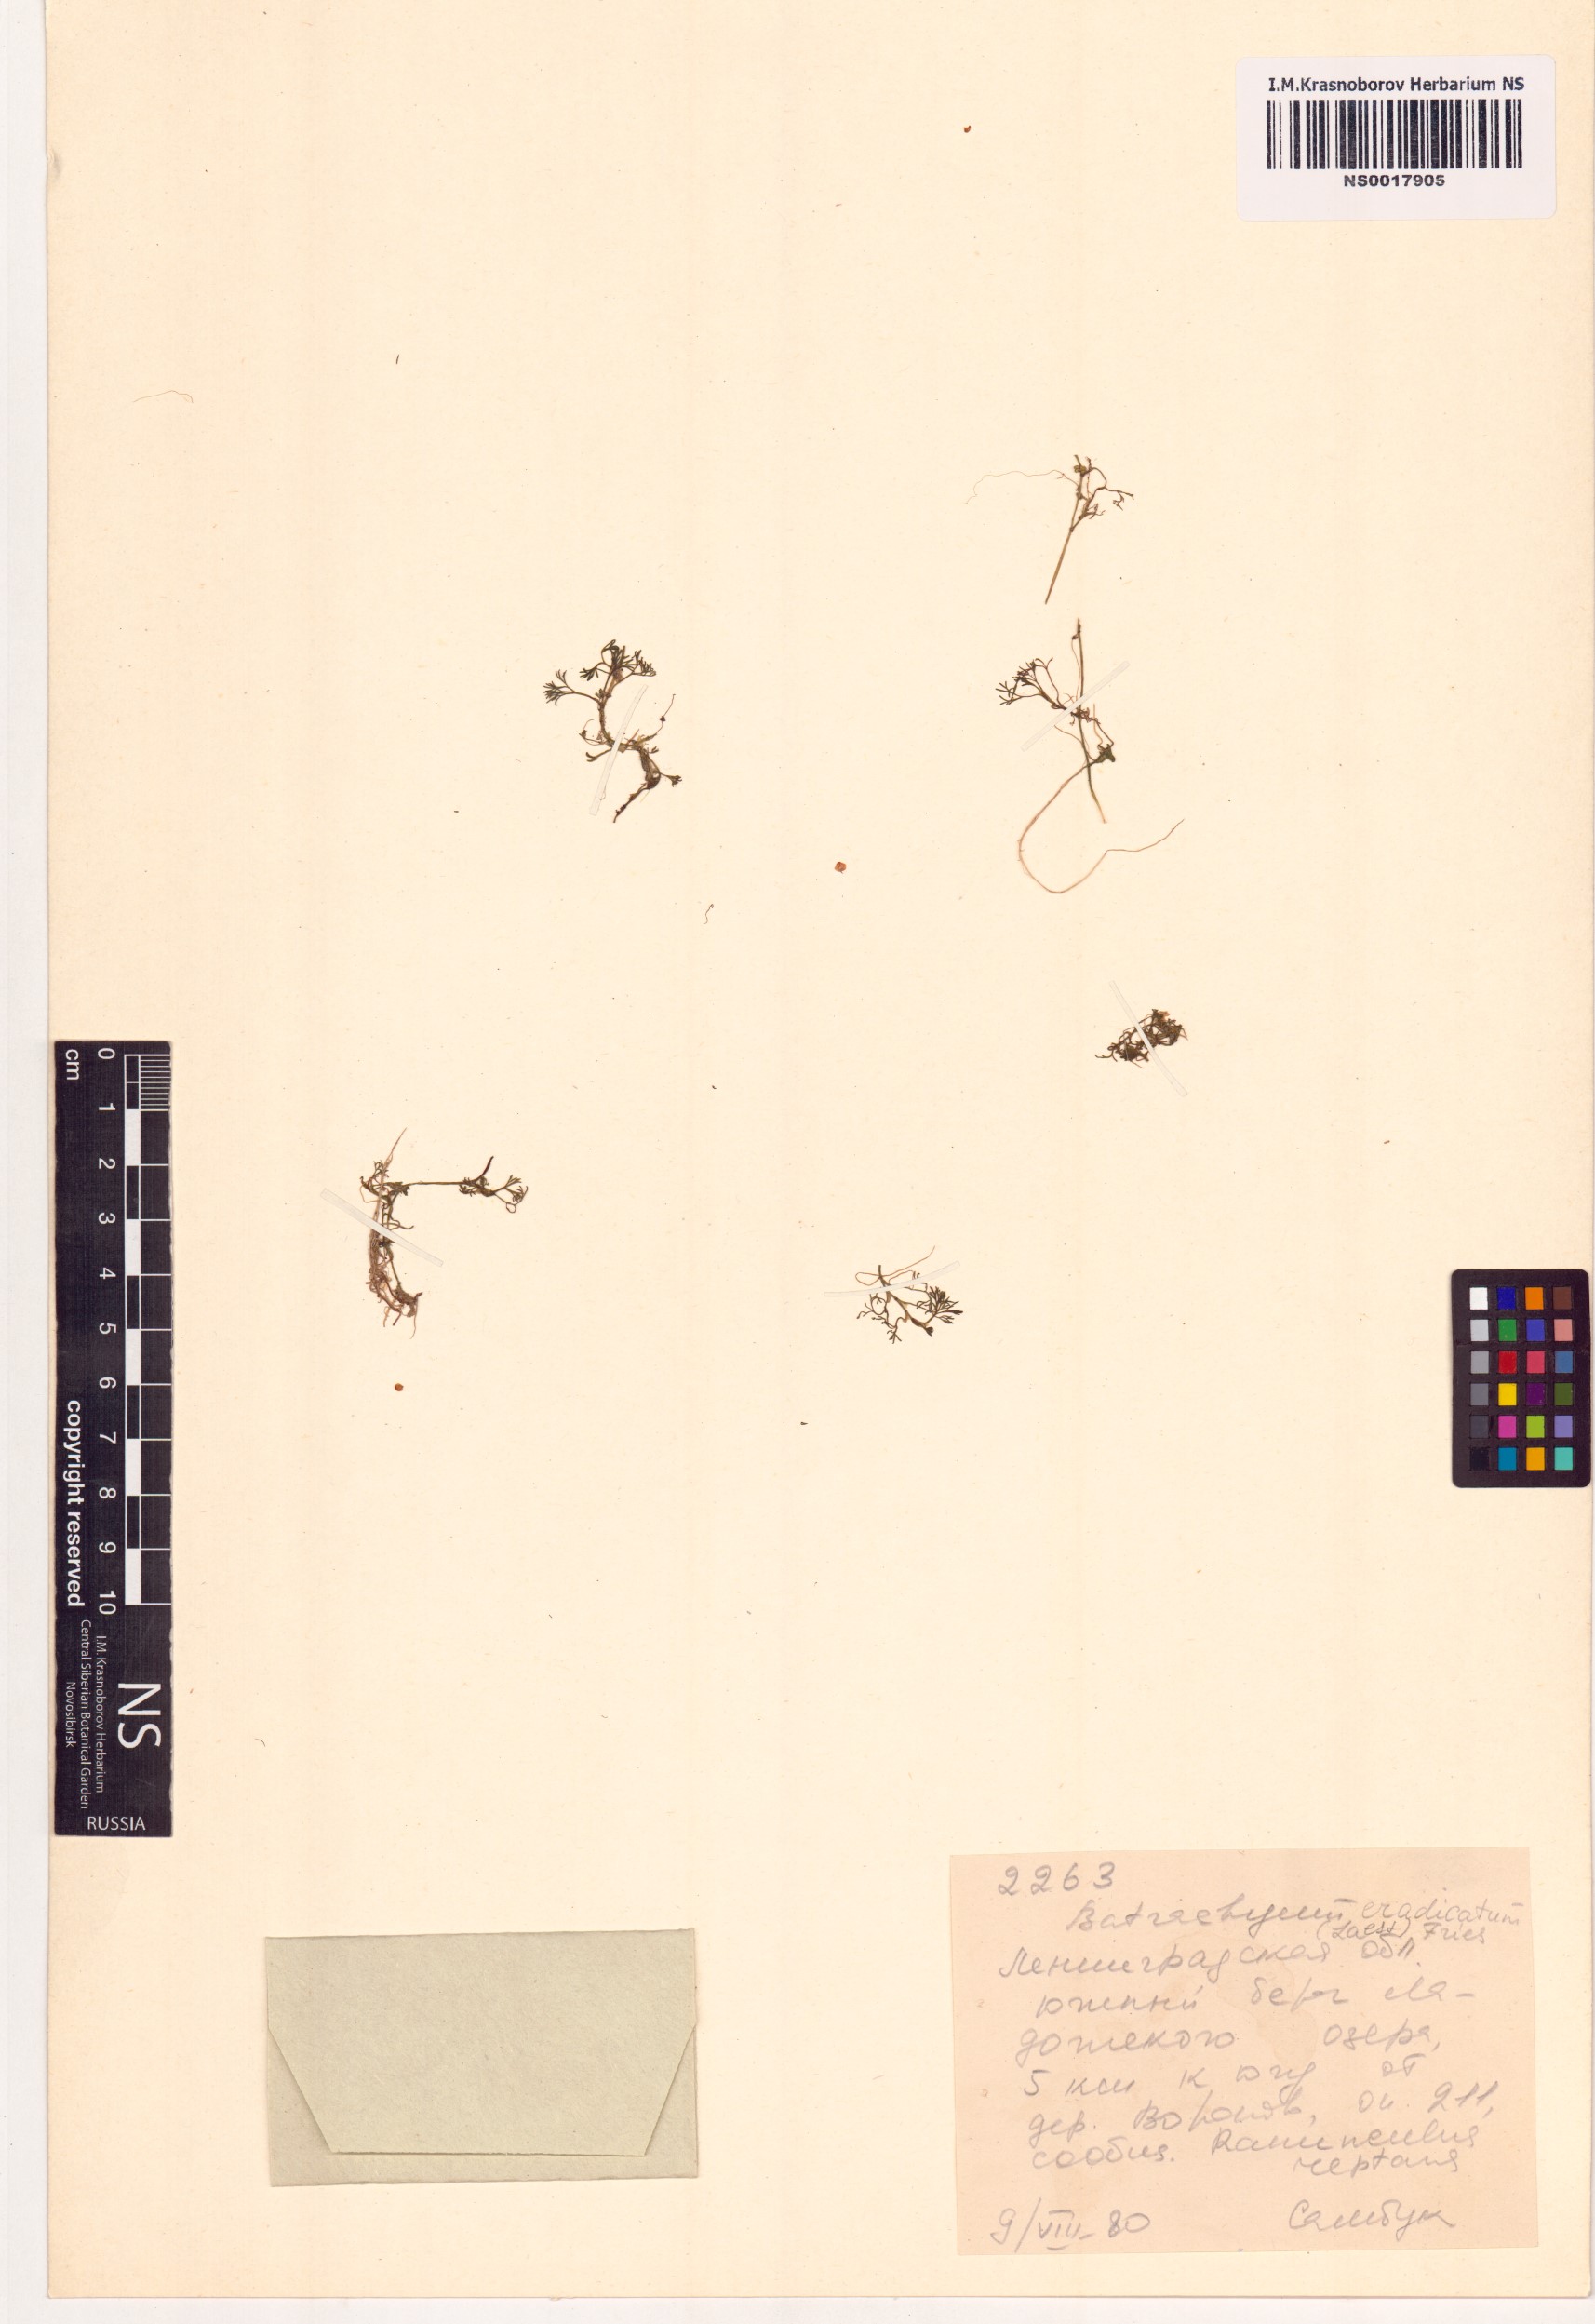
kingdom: Plantae
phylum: Tracheophyta
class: Magnoliopsida
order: Ranunculales
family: Ranunculaceae
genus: Ranunculus
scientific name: Ranunculus confervoides
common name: Delicate buttercup
